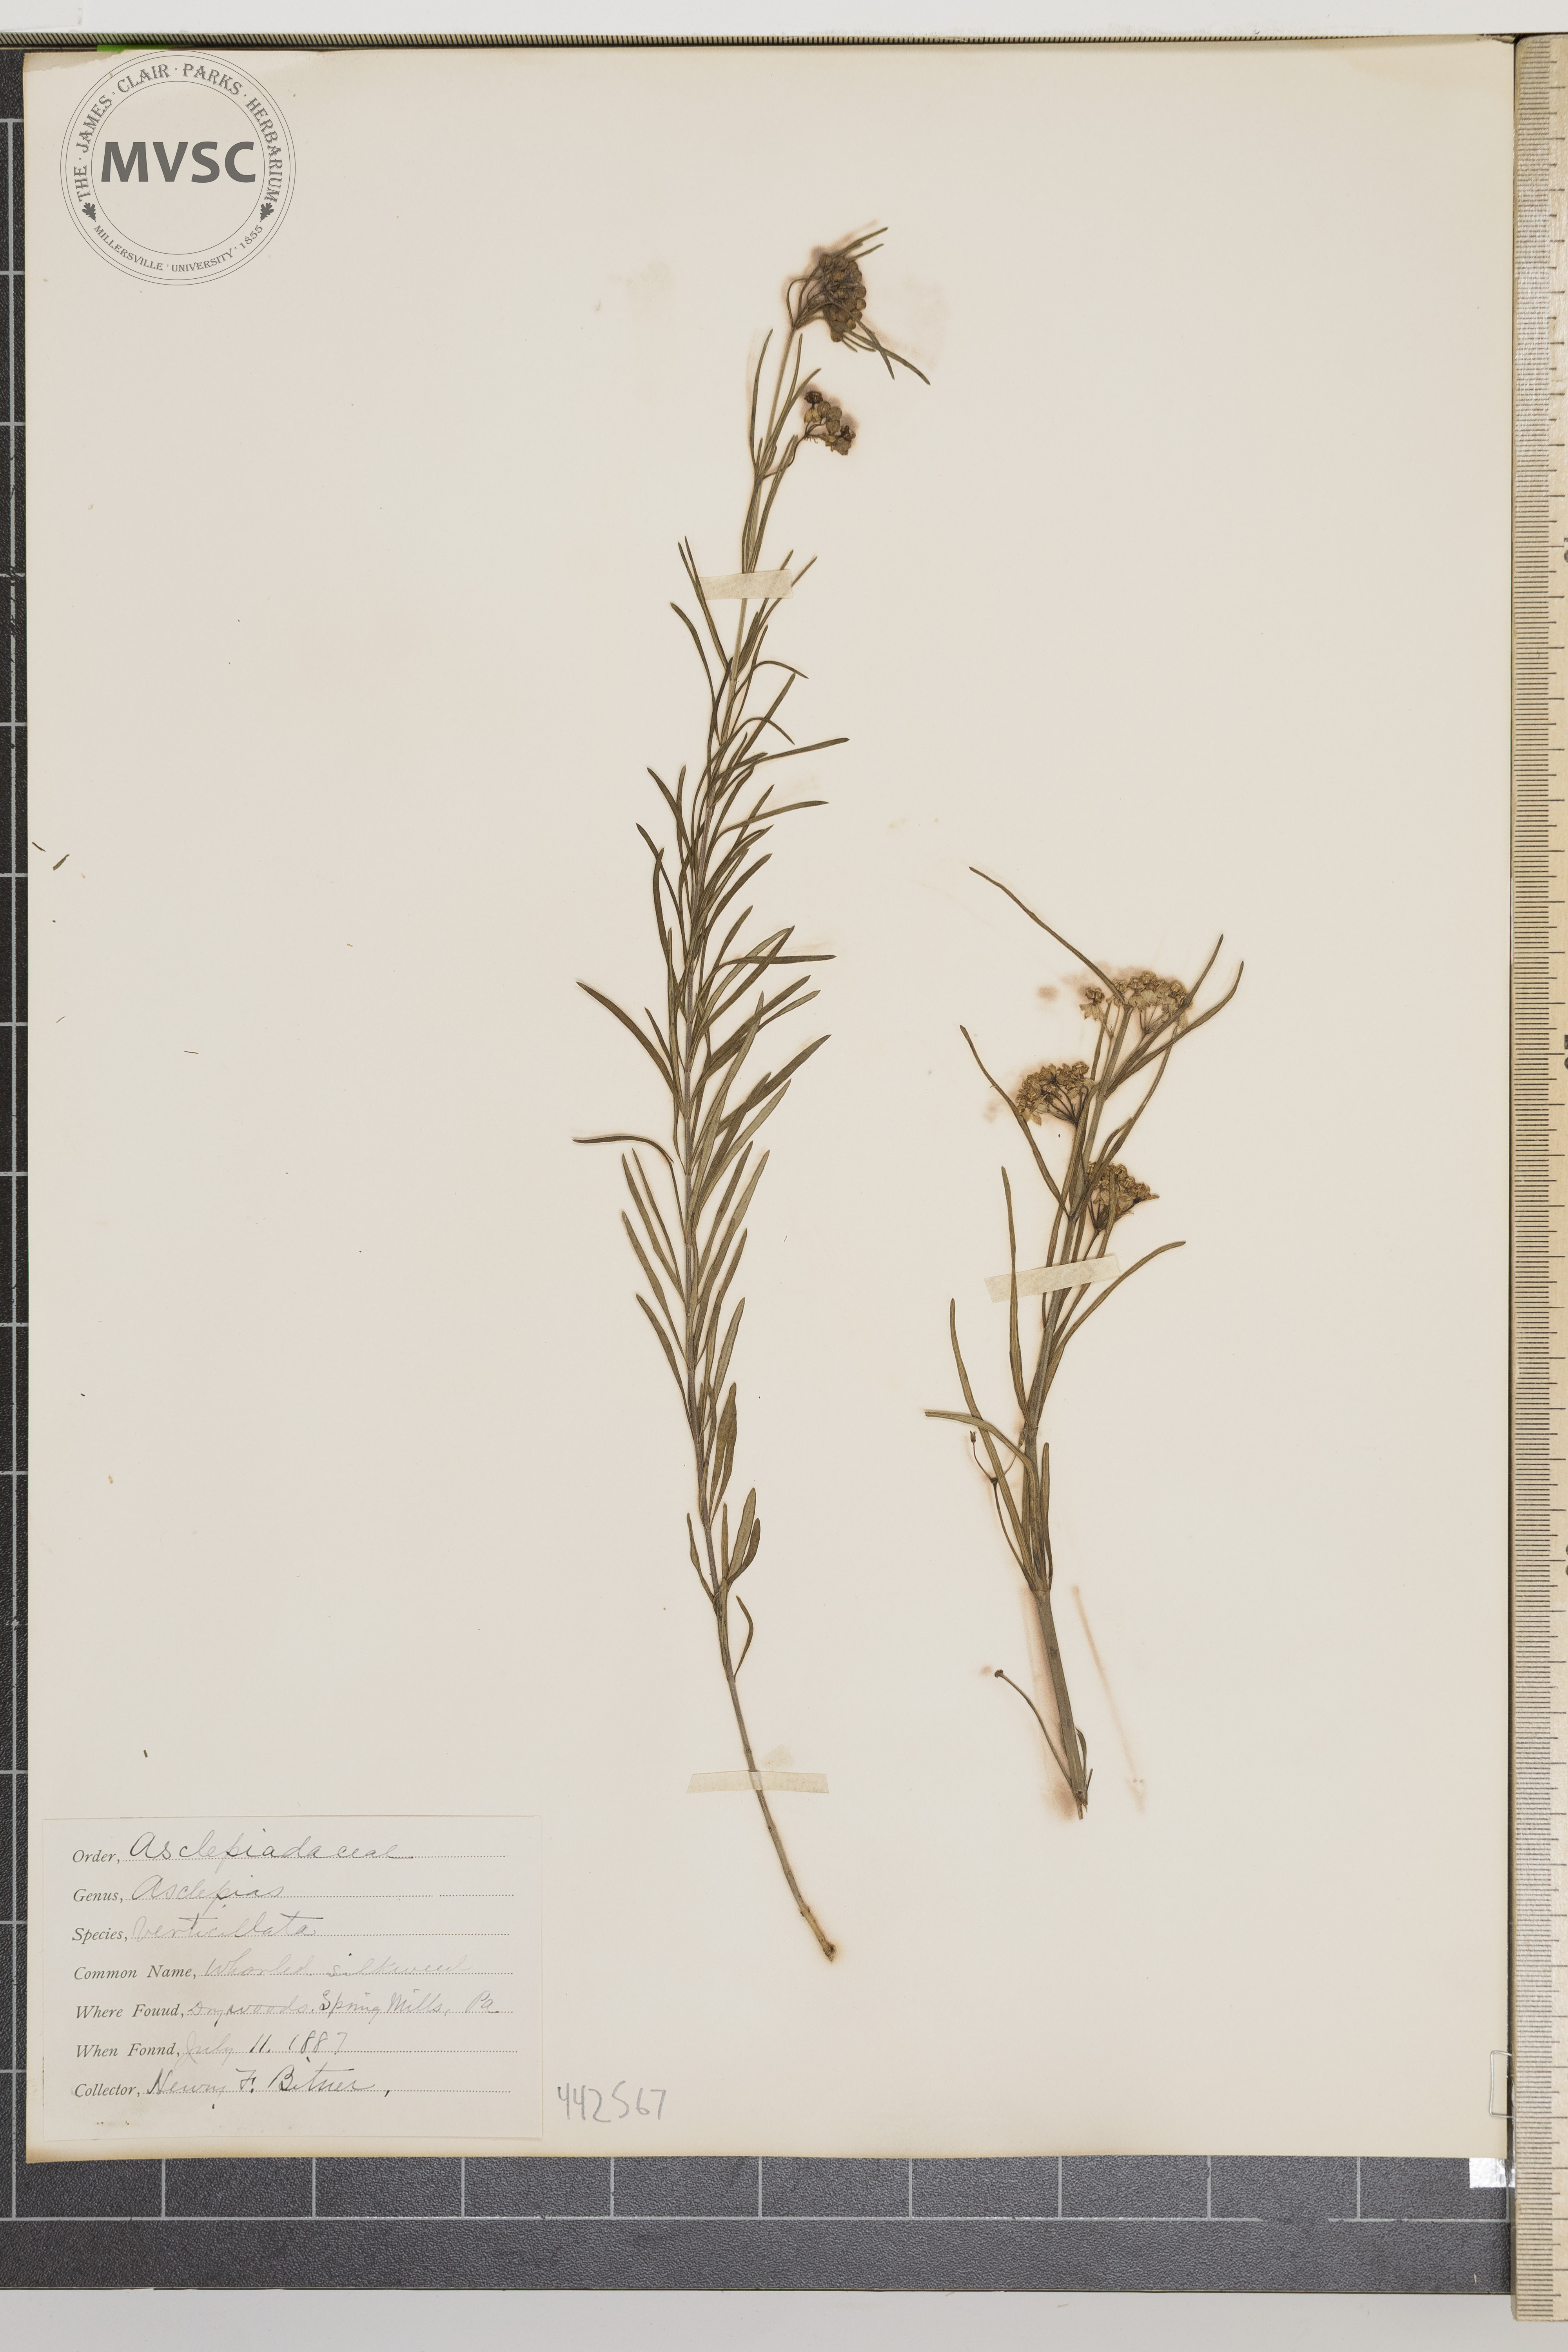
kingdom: Plantae
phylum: Tracheophyta
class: Magnoliopsida
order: Gentianales
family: Apocynaceae
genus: Asclepias
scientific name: Asclepias verticillata
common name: Whorled milkweed
